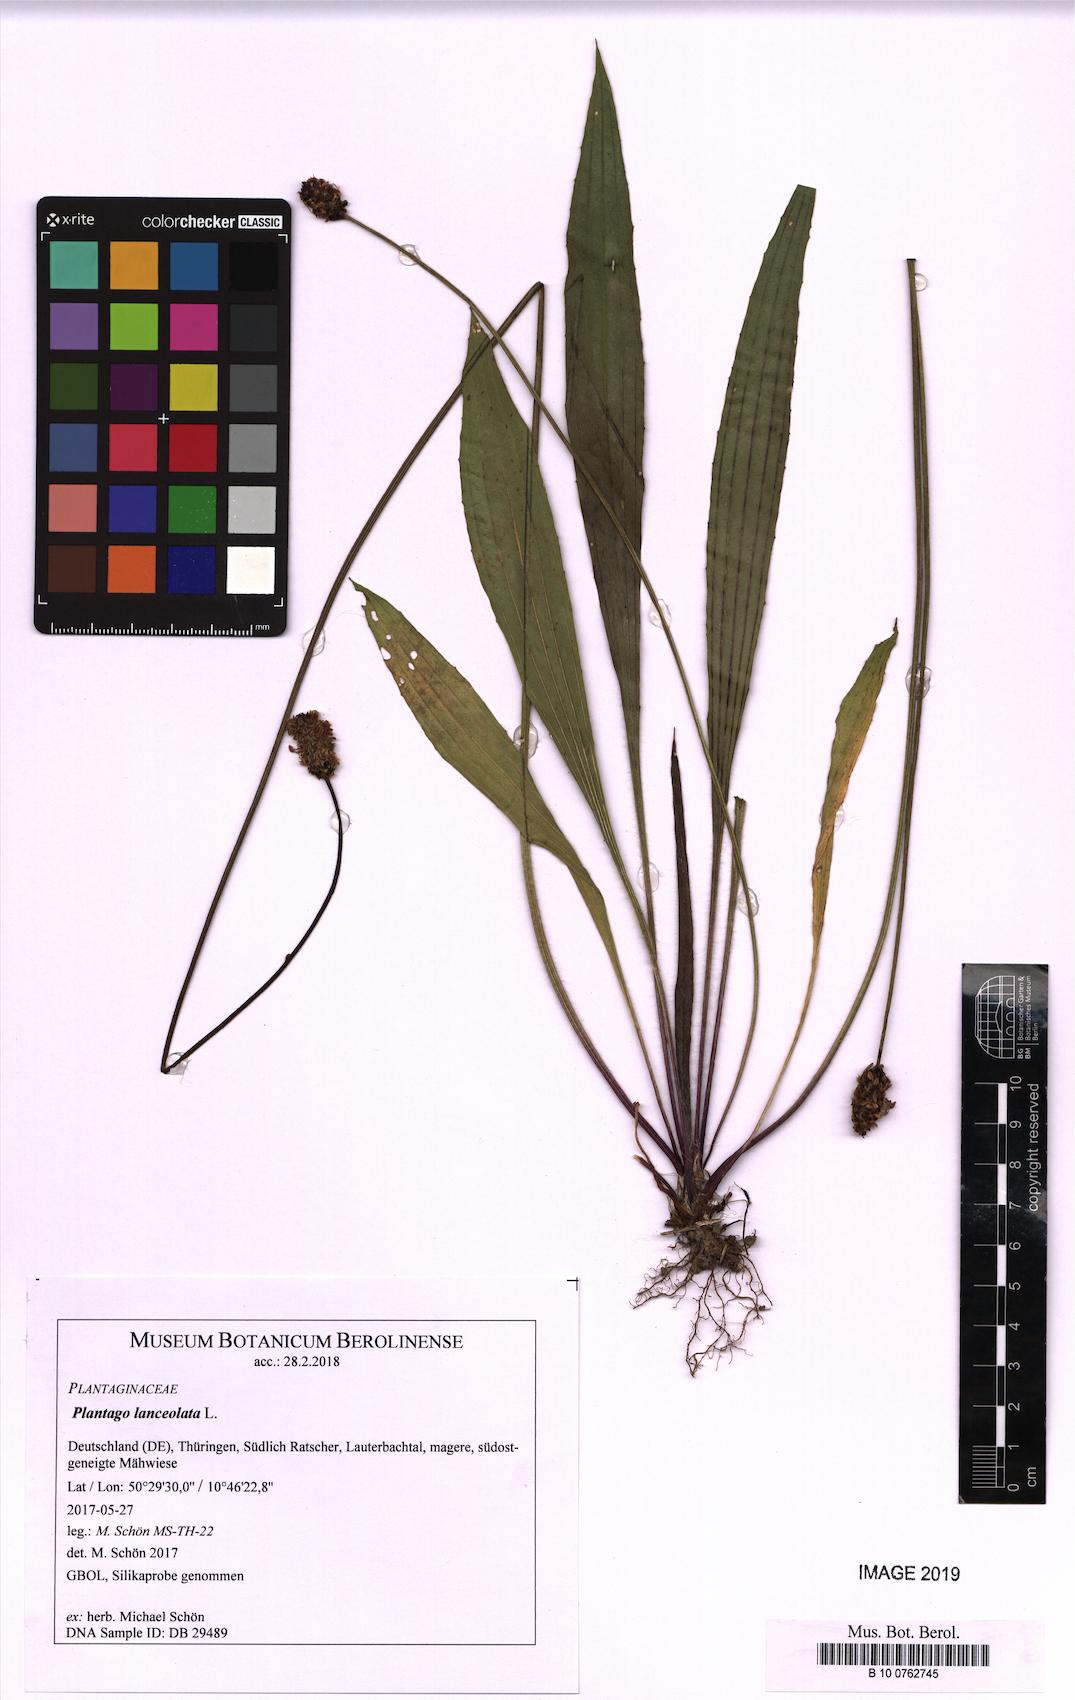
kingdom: Plantae
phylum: Tracheophyta
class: Magnoliopsida
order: Lamiales
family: Plantaginaceae
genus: Plantago
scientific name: Plantago lanceolata
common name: Ribwort plantain
